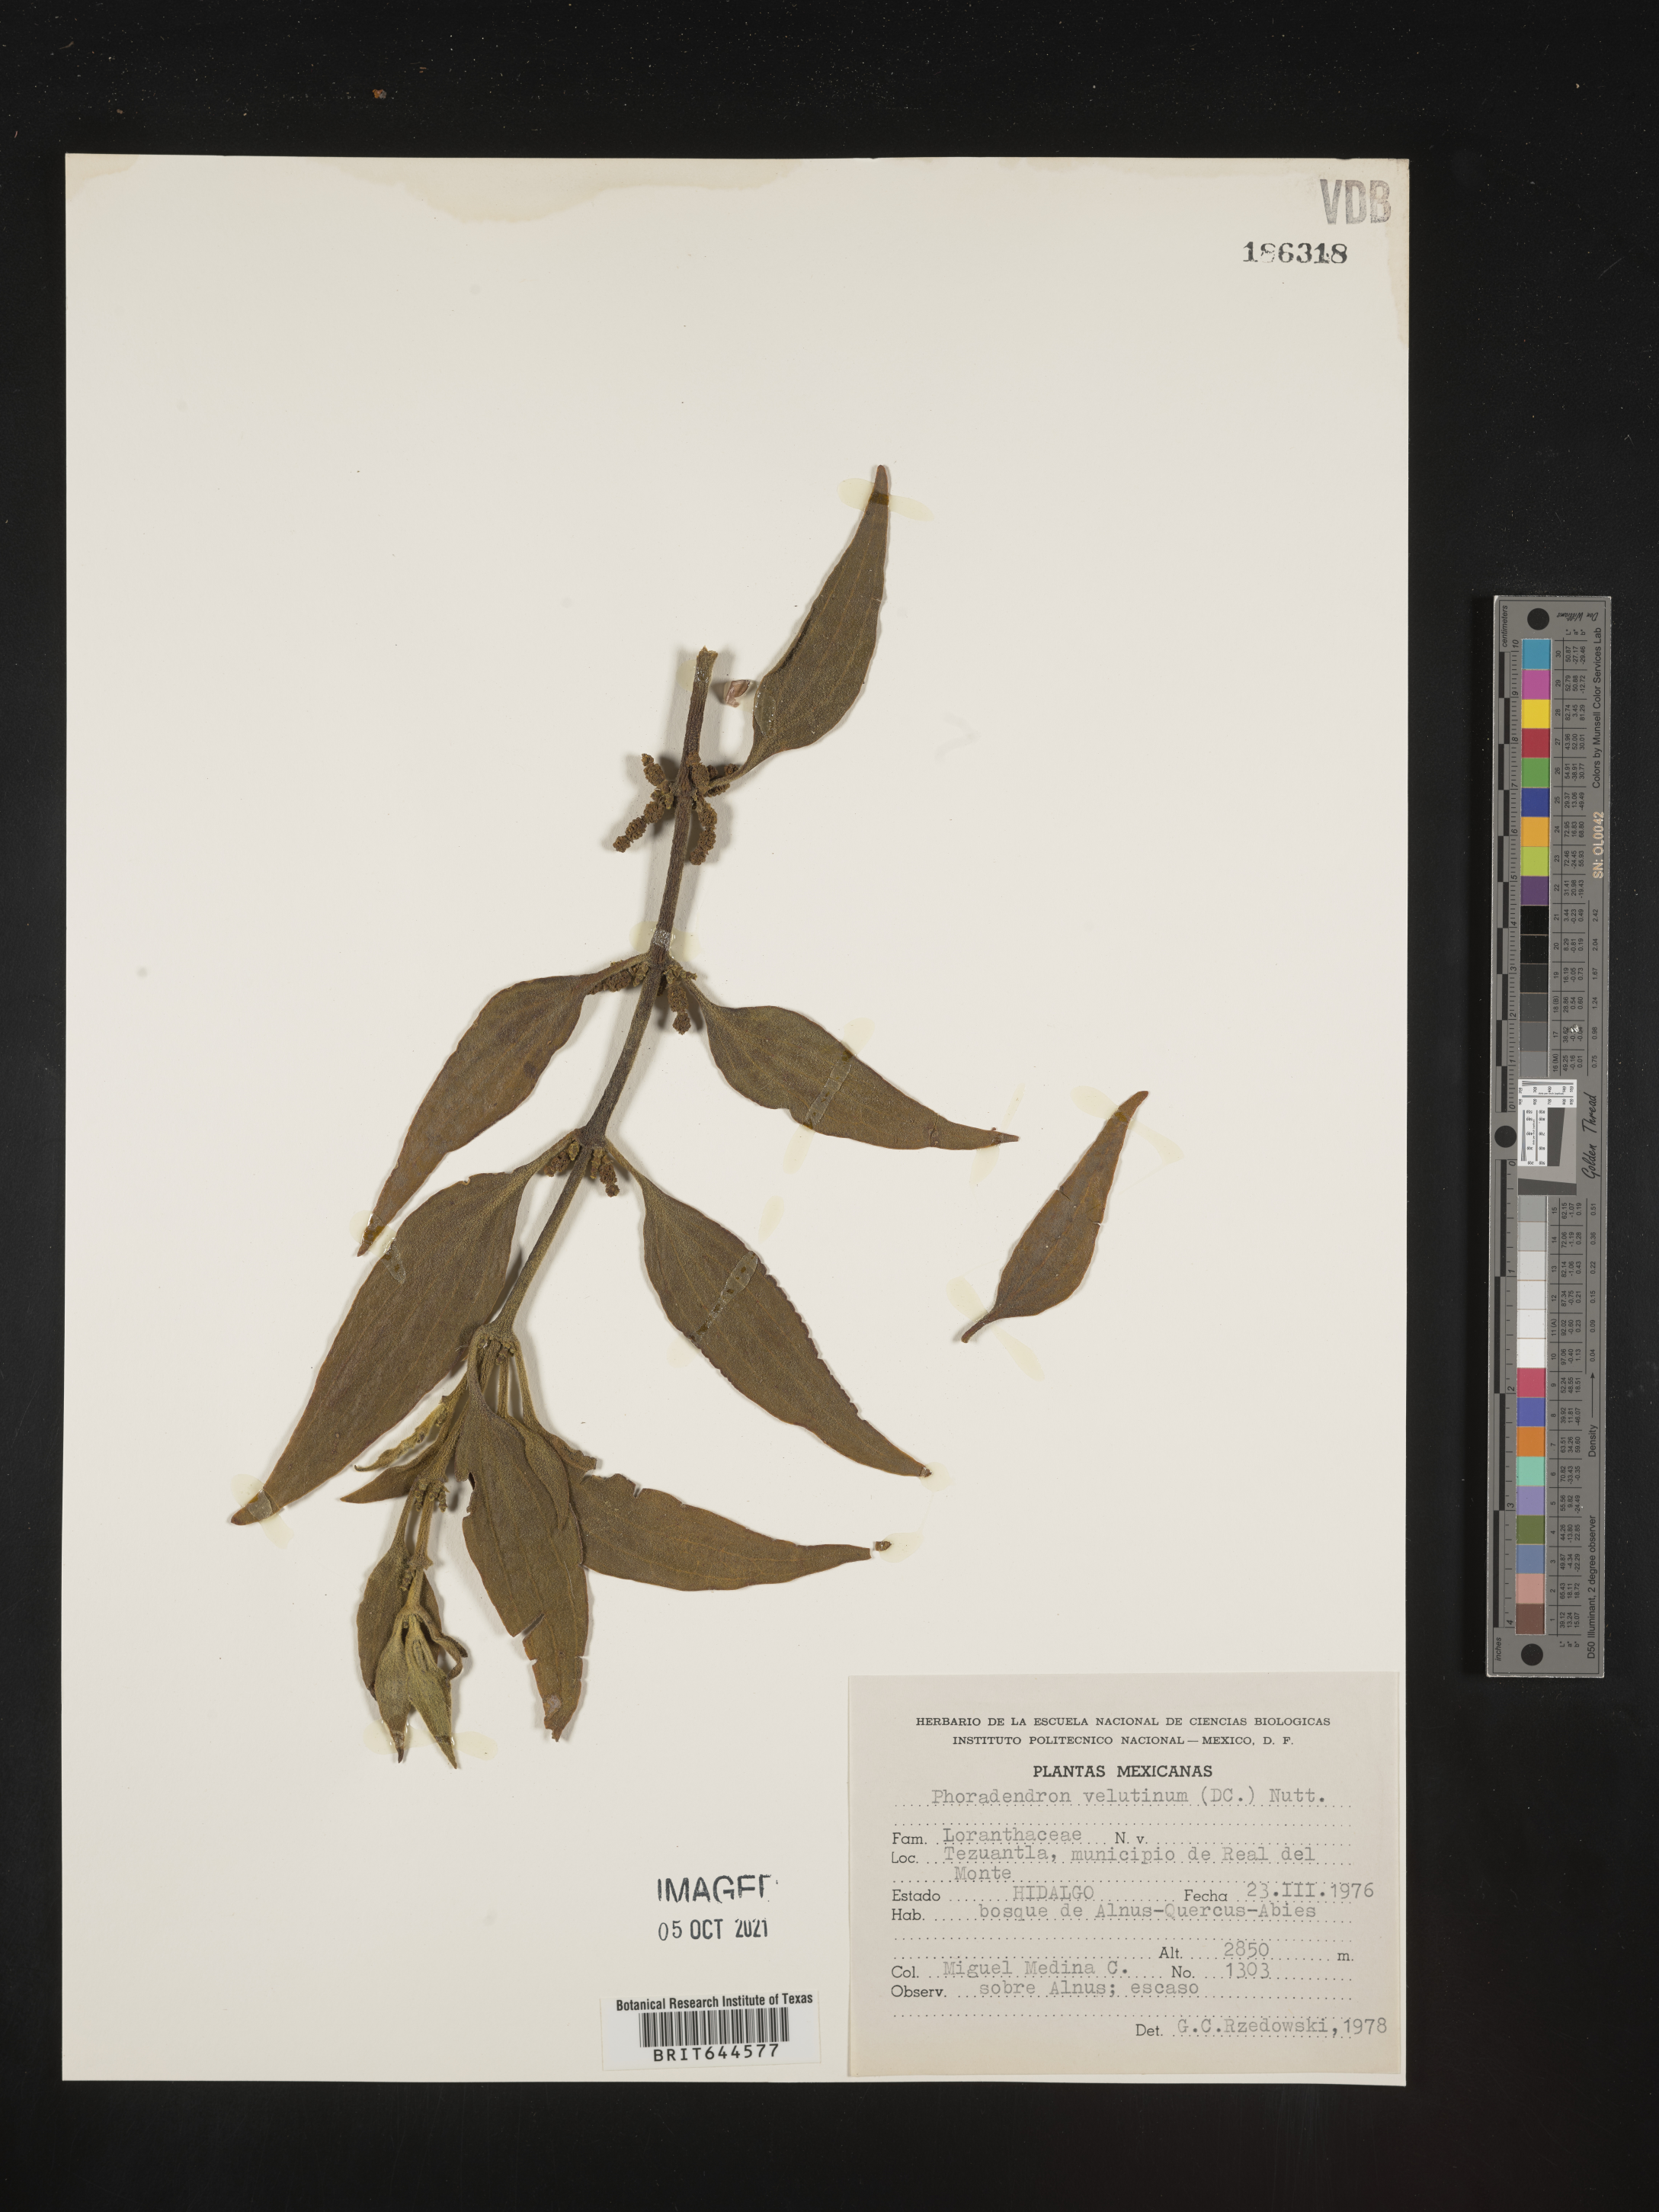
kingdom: Plantae
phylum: Tracheophyta
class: Magnoliopsida
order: Santalales
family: Viscaceae
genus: Phoradendron
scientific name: Phoradendron
